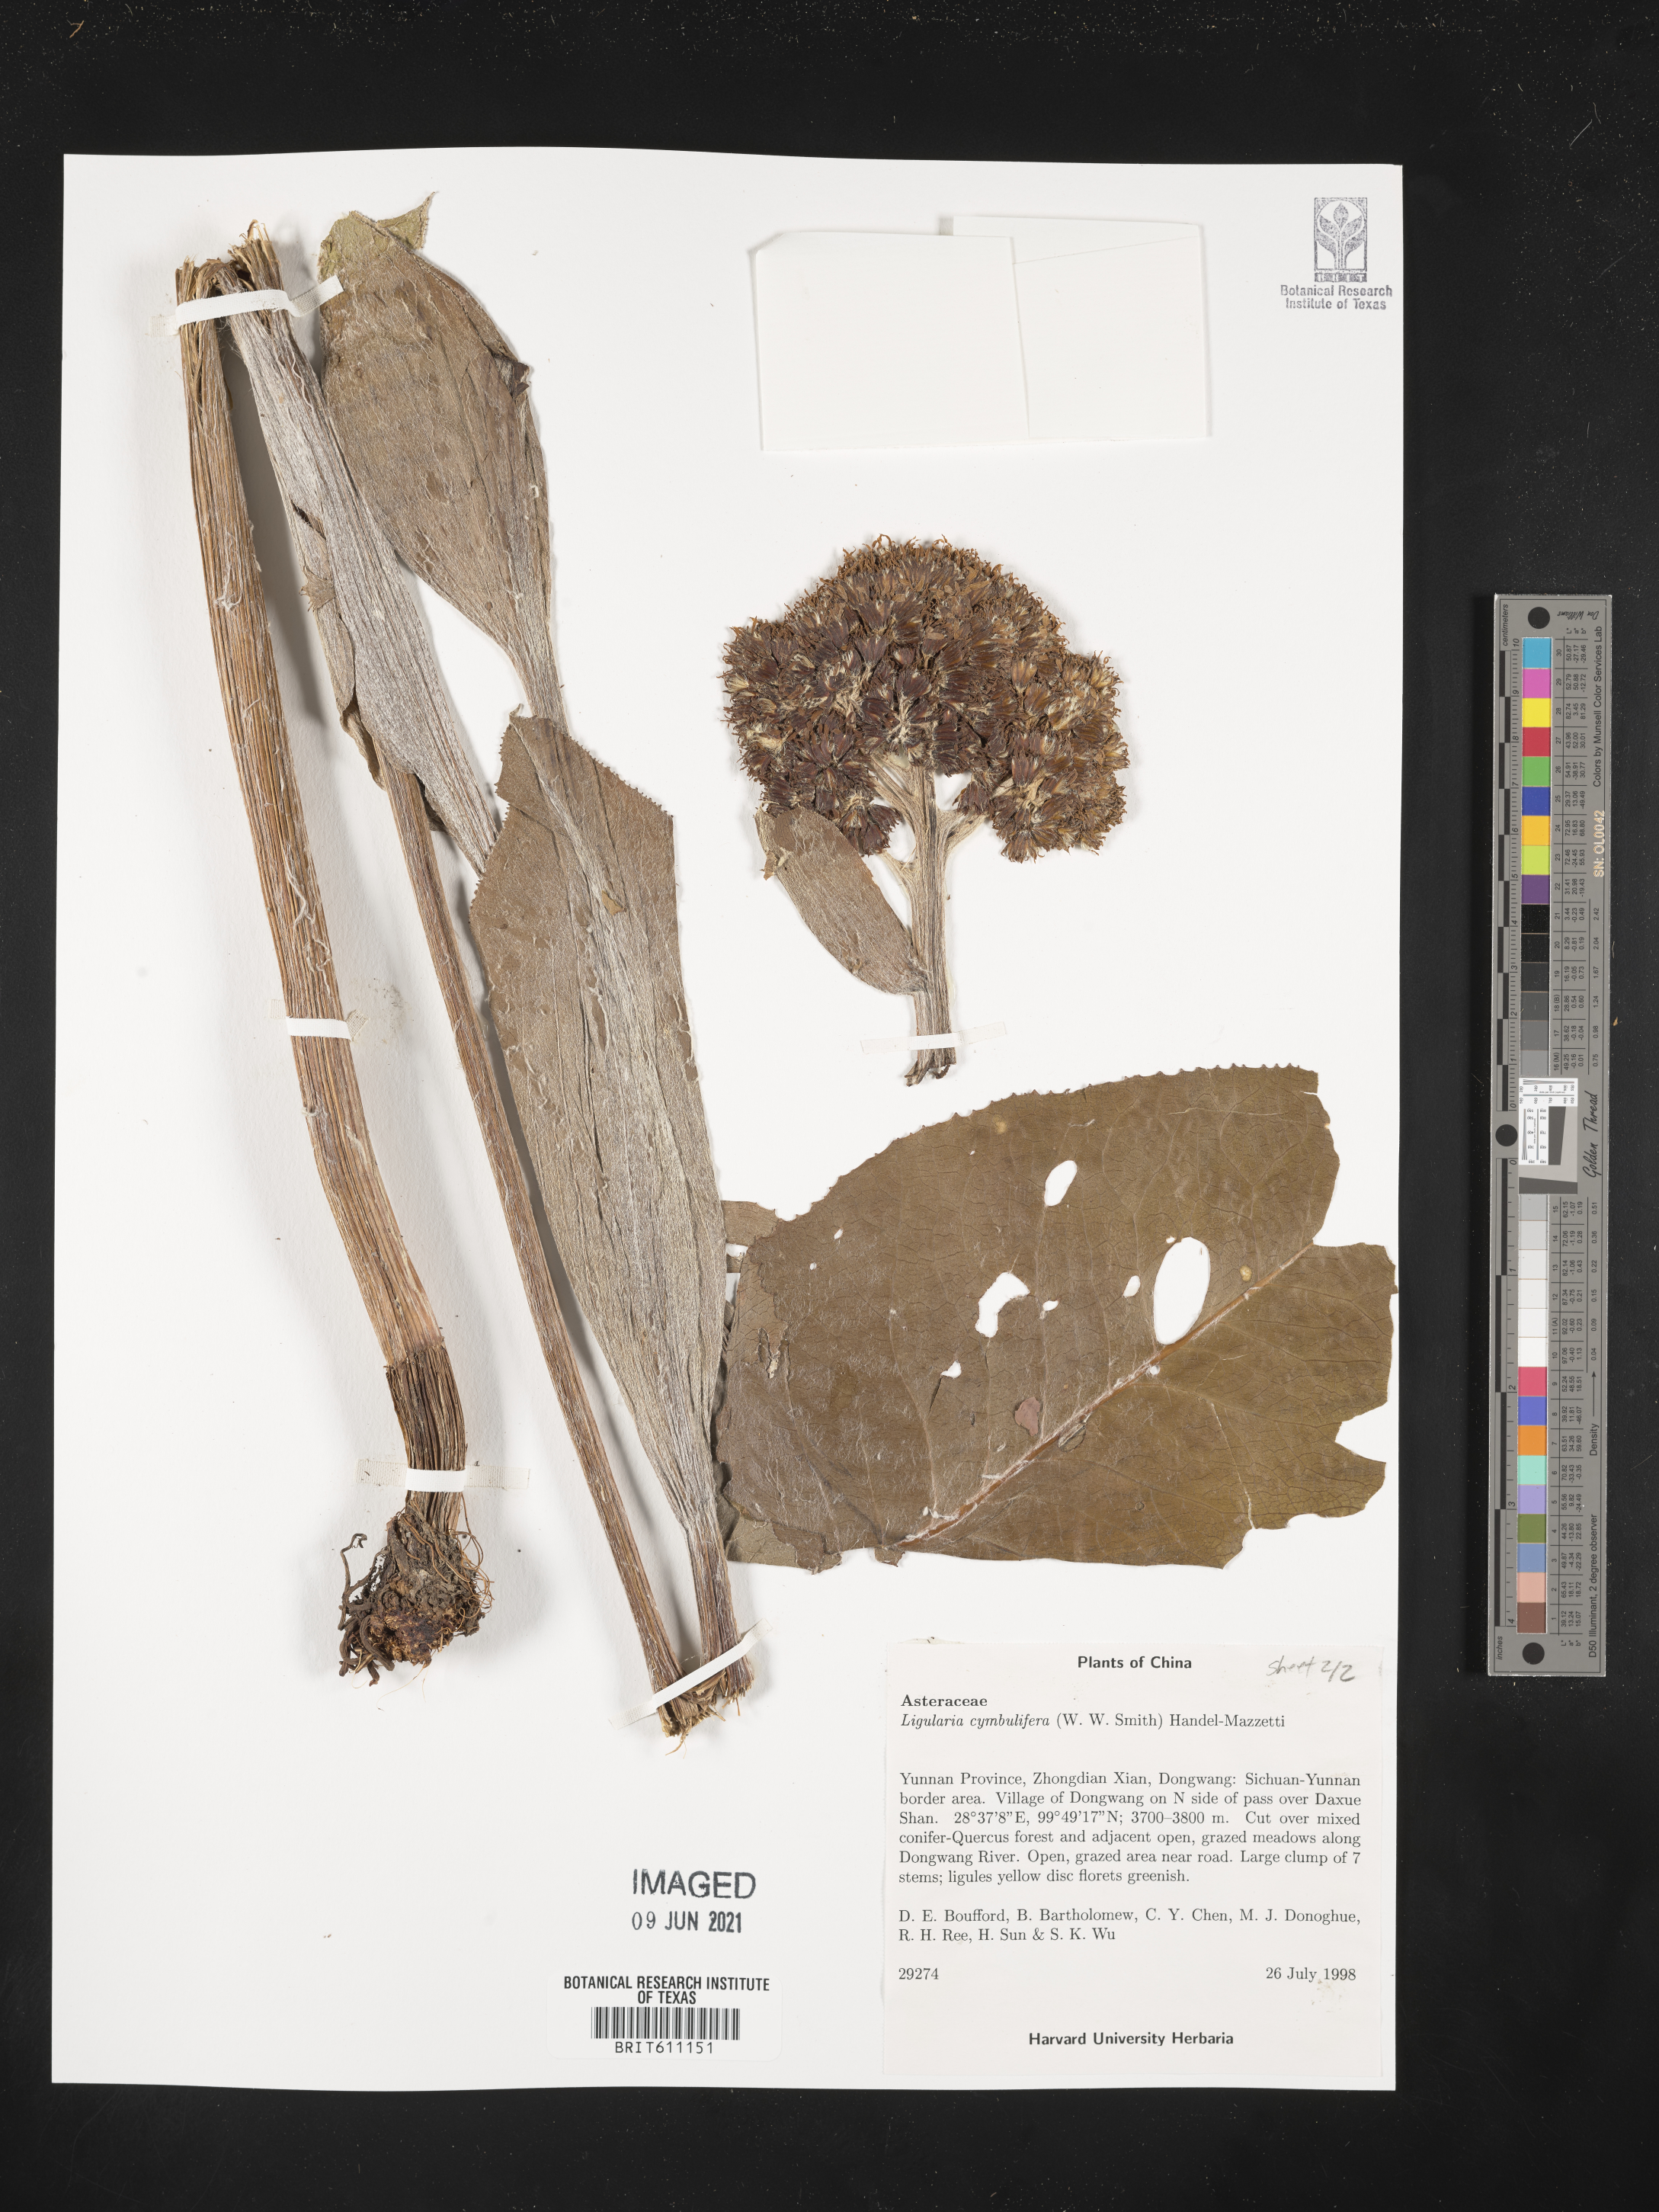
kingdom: Plantae
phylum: Tracheophyta
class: Magnoliopsida
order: Asterales
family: Asteraceae
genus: Ligularia
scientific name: Ligularia cymbulifera
